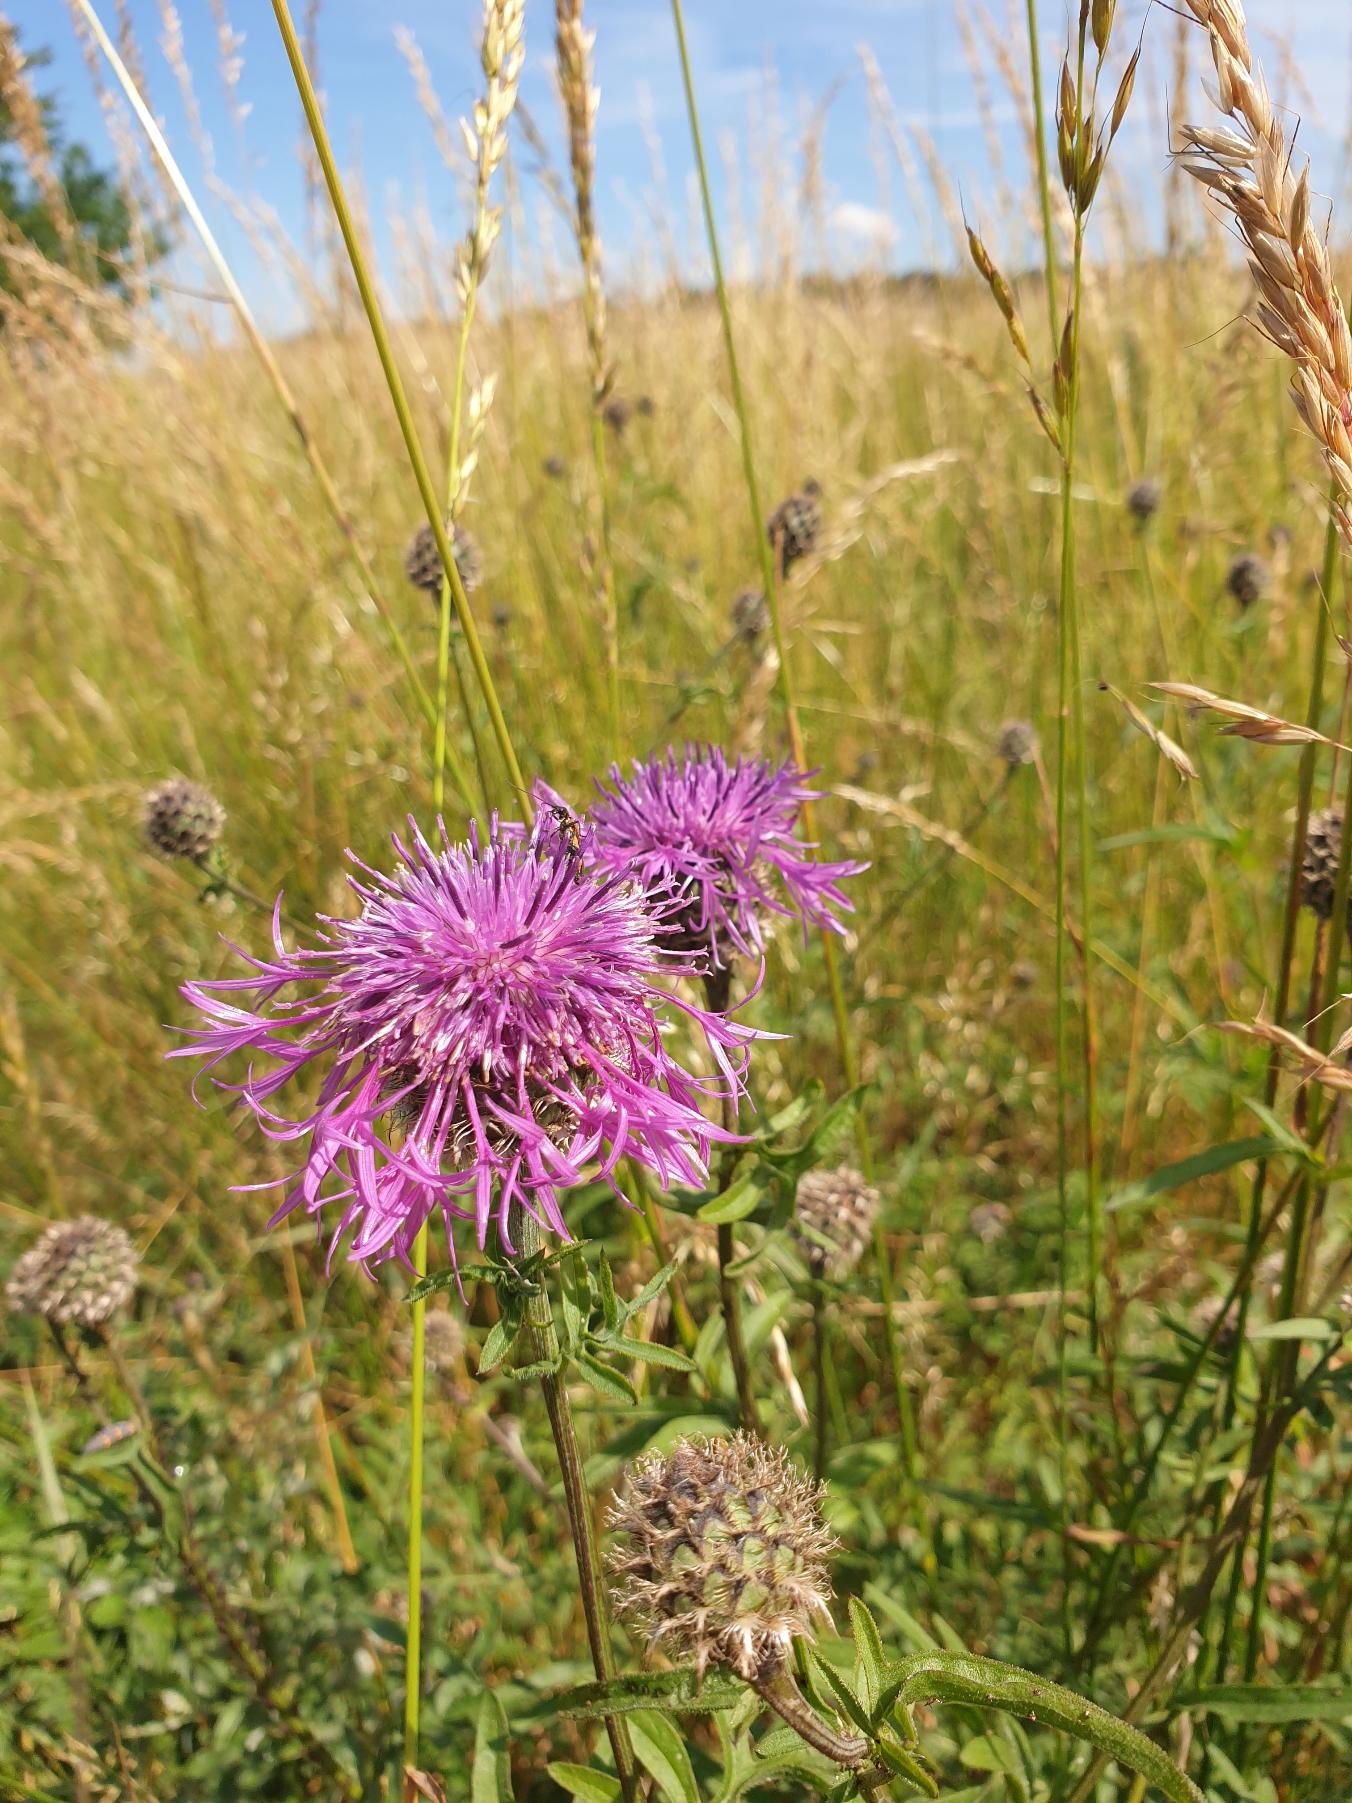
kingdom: Plantae
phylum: Tracheophyta
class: Magnoliopsida
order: Asterales
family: Asteraceae
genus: Centaurea
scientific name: Centaurea scabiosa
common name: Stor knopurt
